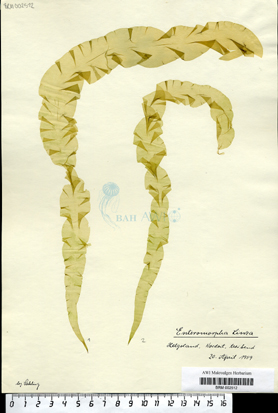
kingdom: Plantae
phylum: Chlorophyta
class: Ulvophyceae
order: Ulvales
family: Ulvaceae
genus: Ulva
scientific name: Ulva linza
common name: Green string lettuce
